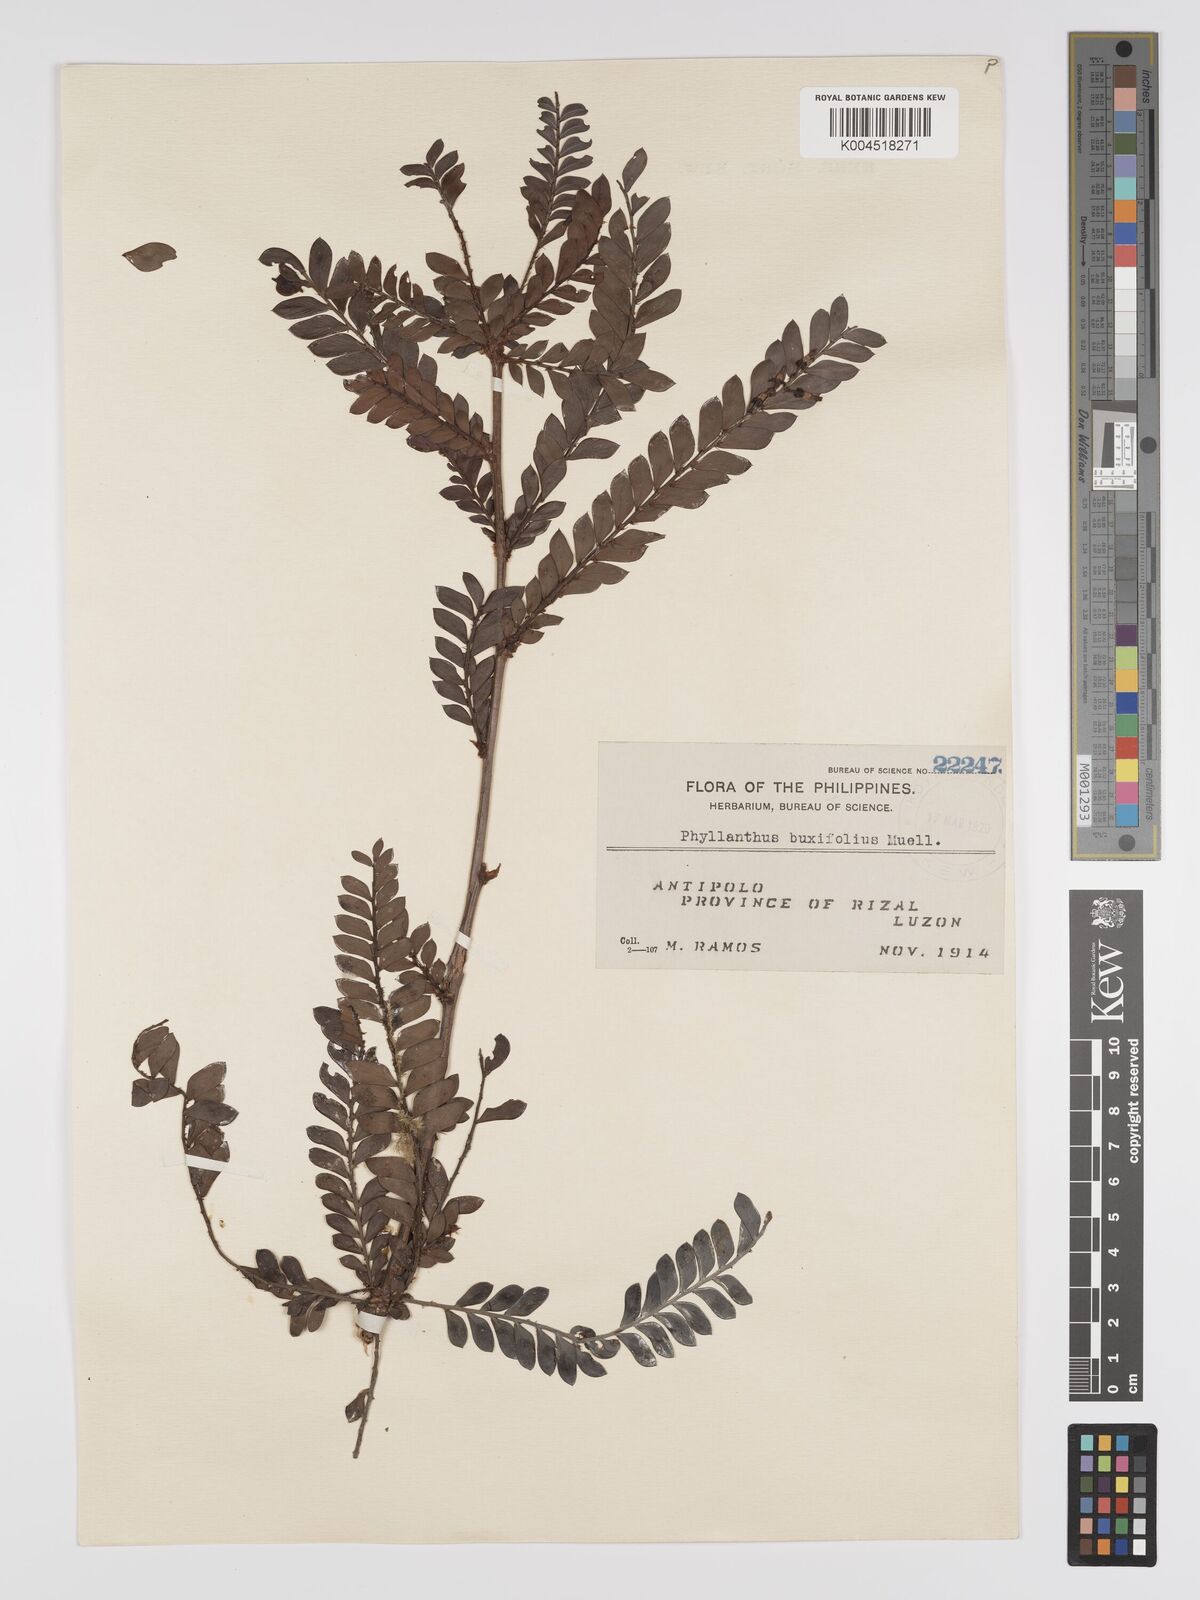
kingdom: Plantae
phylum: Tracheophyta
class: Magnoliopsida
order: Malpighiales
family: Phyllanthaceae
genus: Phyllanthus
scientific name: Phyllanthus buxifolius
